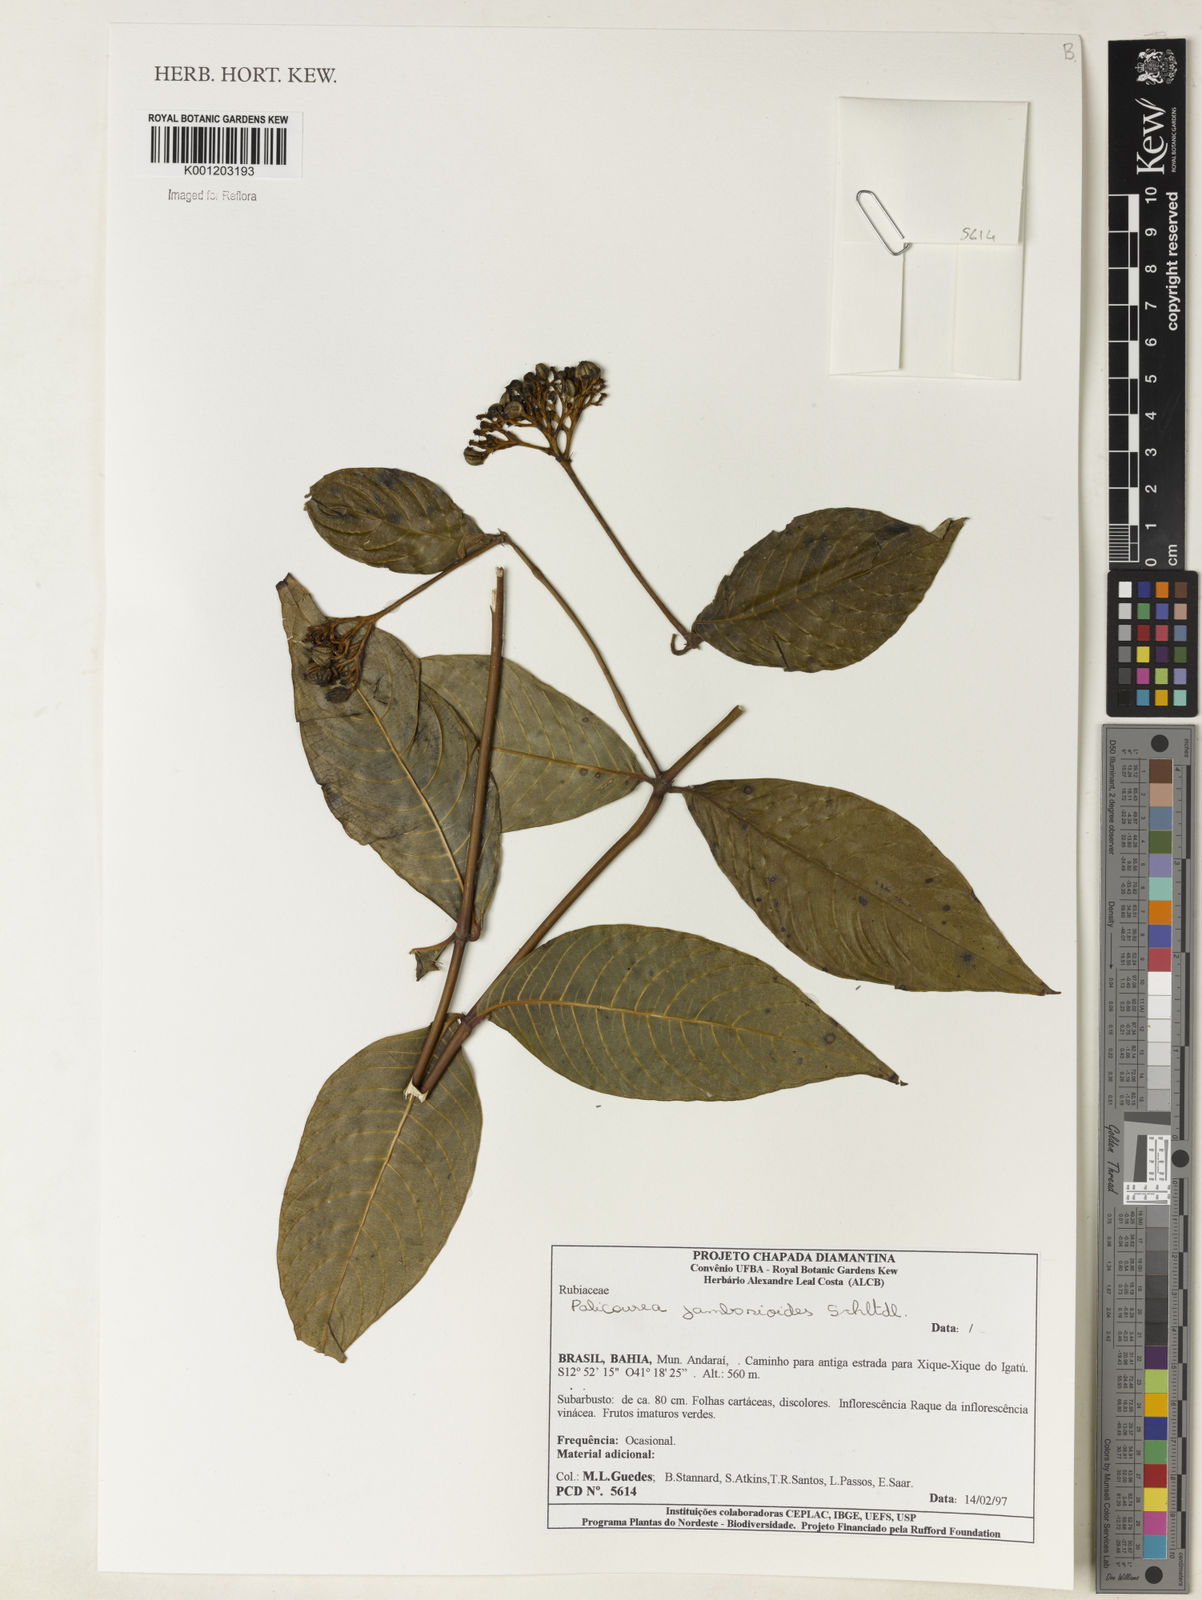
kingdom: Plantae
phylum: Tracheophyta
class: Magnoliopsida
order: Gentianales
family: Rubiaceae
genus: Palicourea
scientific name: Palicourea
